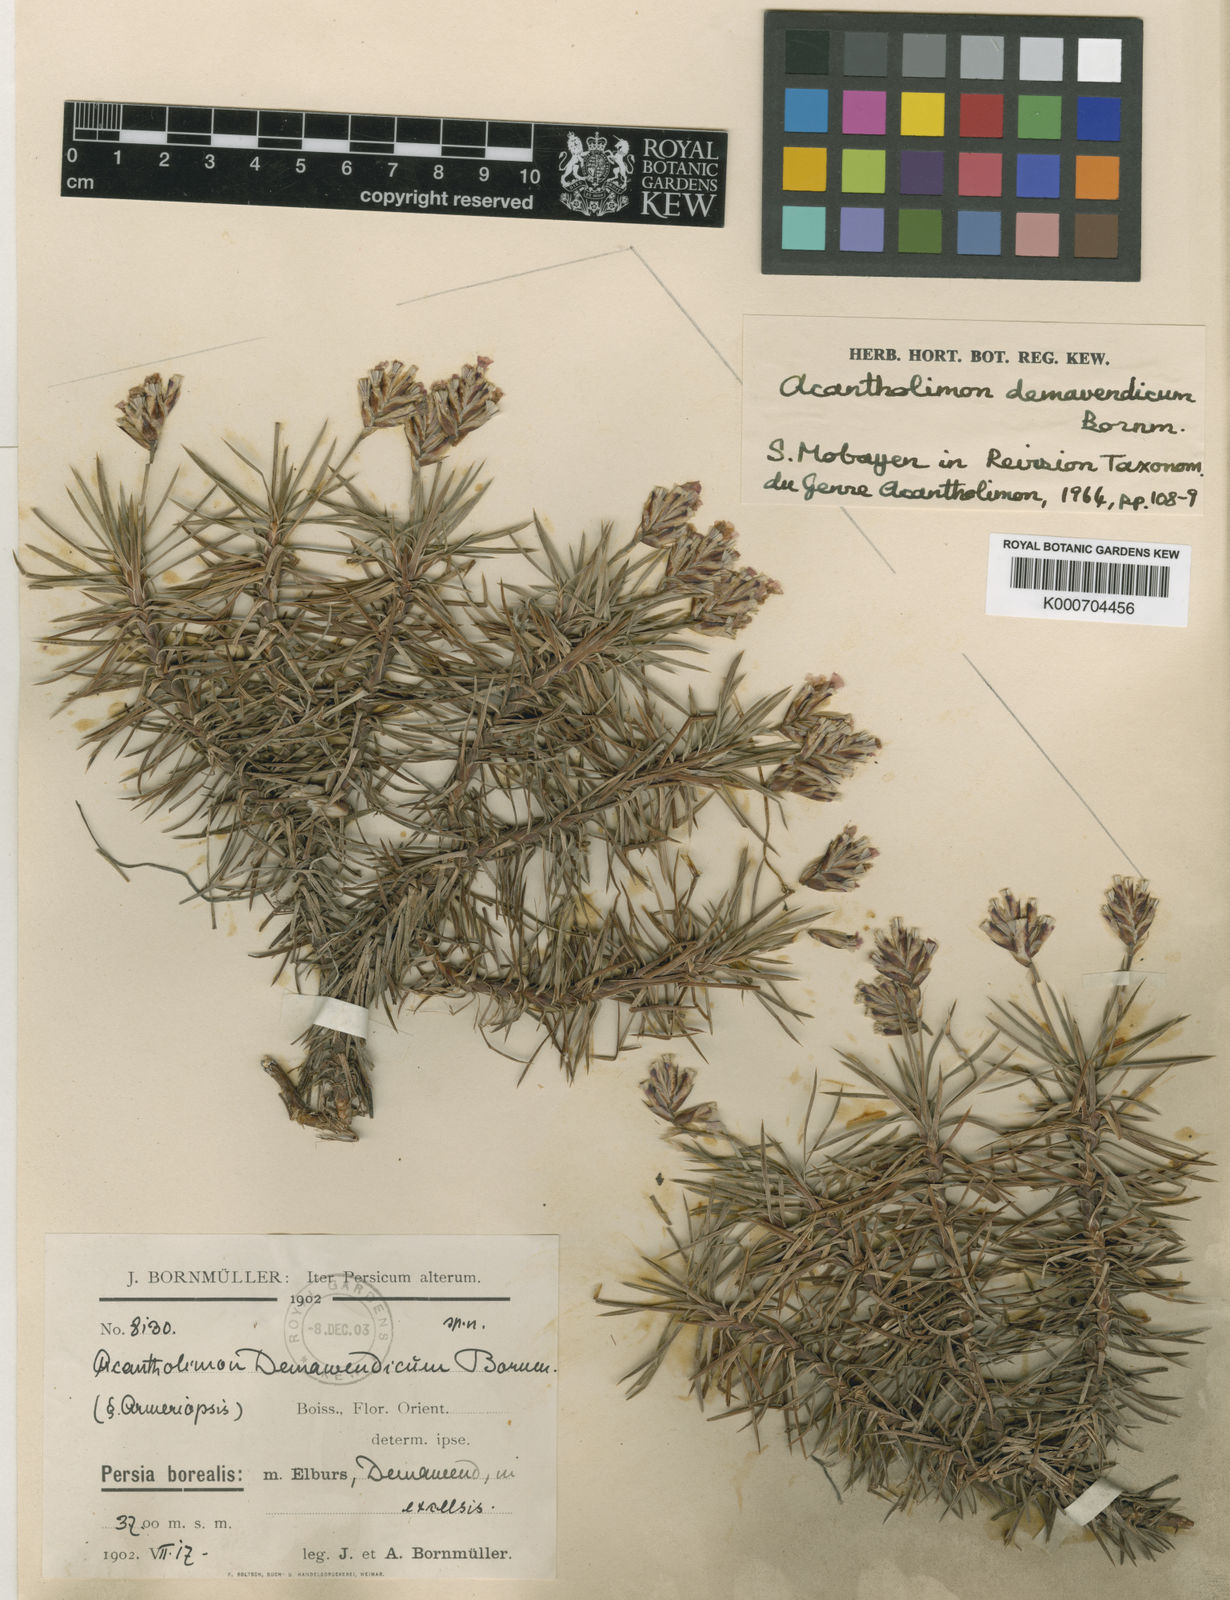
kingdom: Plantae
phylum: Tracheophyta
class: Magnoliopsida
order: Caryophyllales
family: Plumbaginaceae
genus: Acantholimon
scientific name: Acantholimon demavendicum
